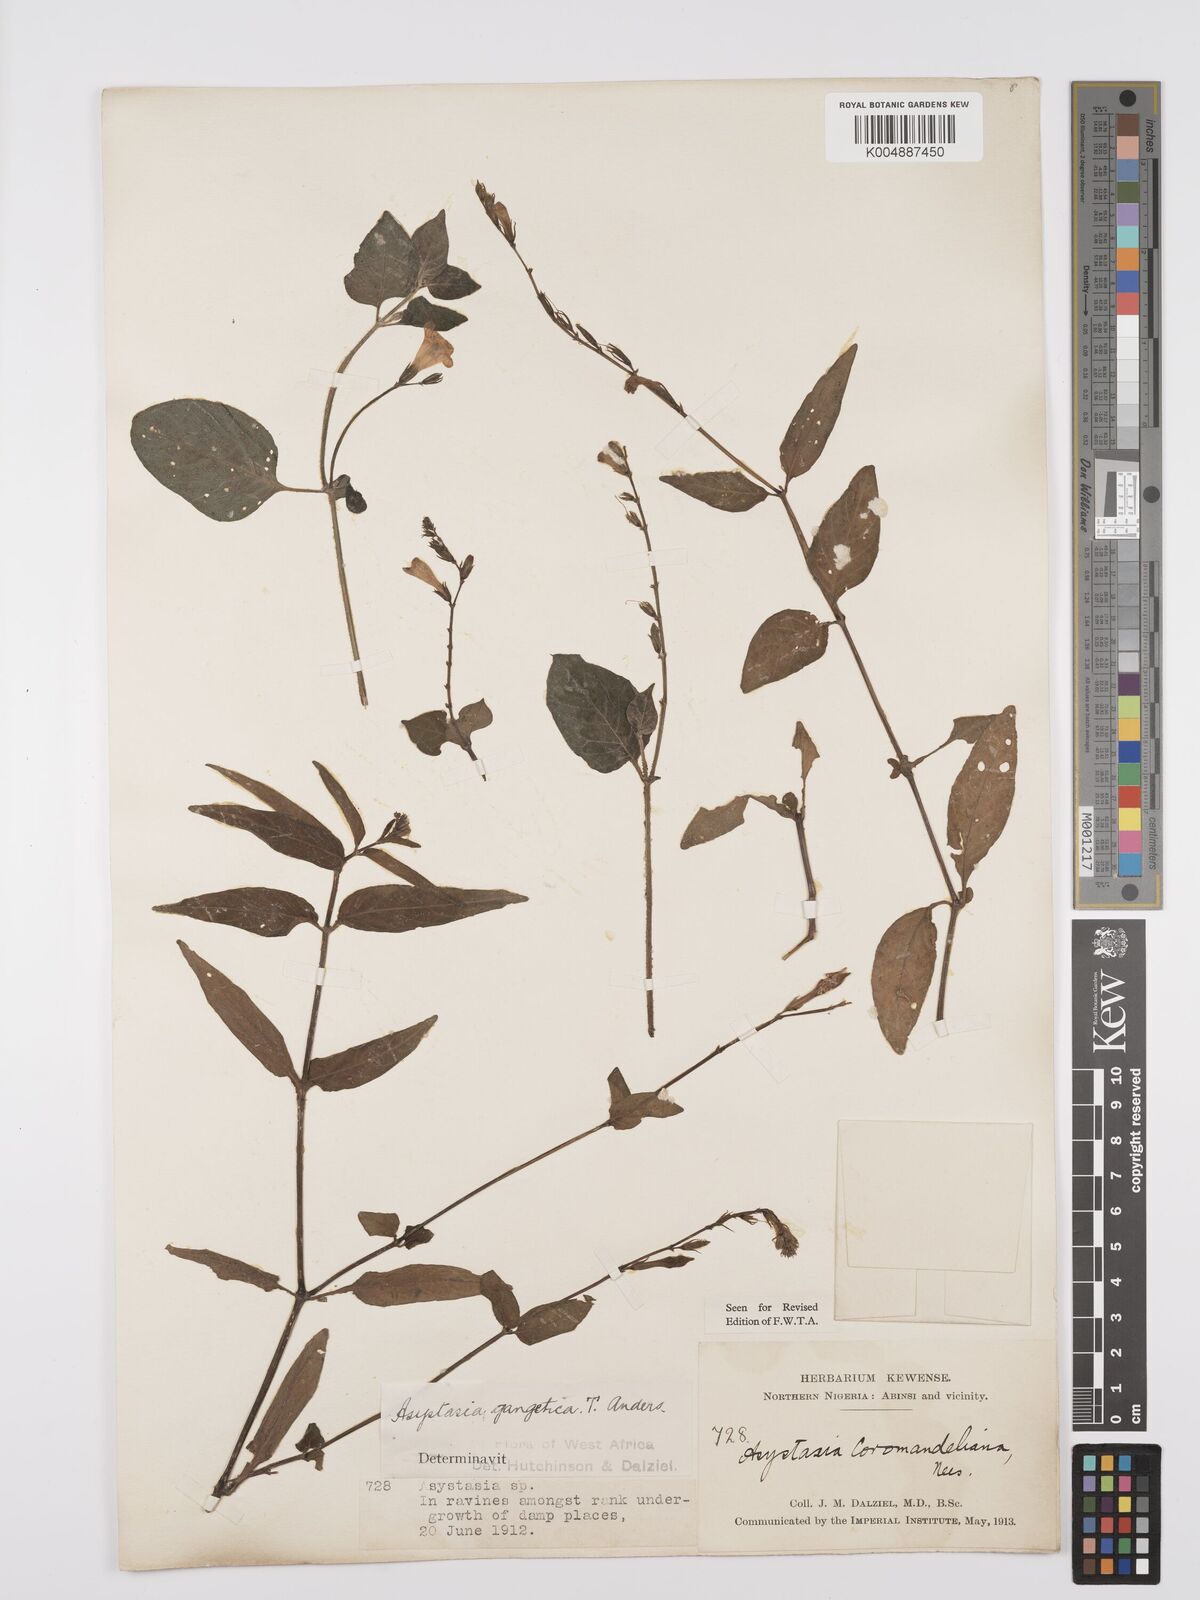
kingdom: Plantae
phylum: Tracheophyta
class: Magnoliopsida
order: Lamiales
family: Acanthaceae
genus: Asystasia
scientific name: Asystasia gangetica
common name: Chinese violet
